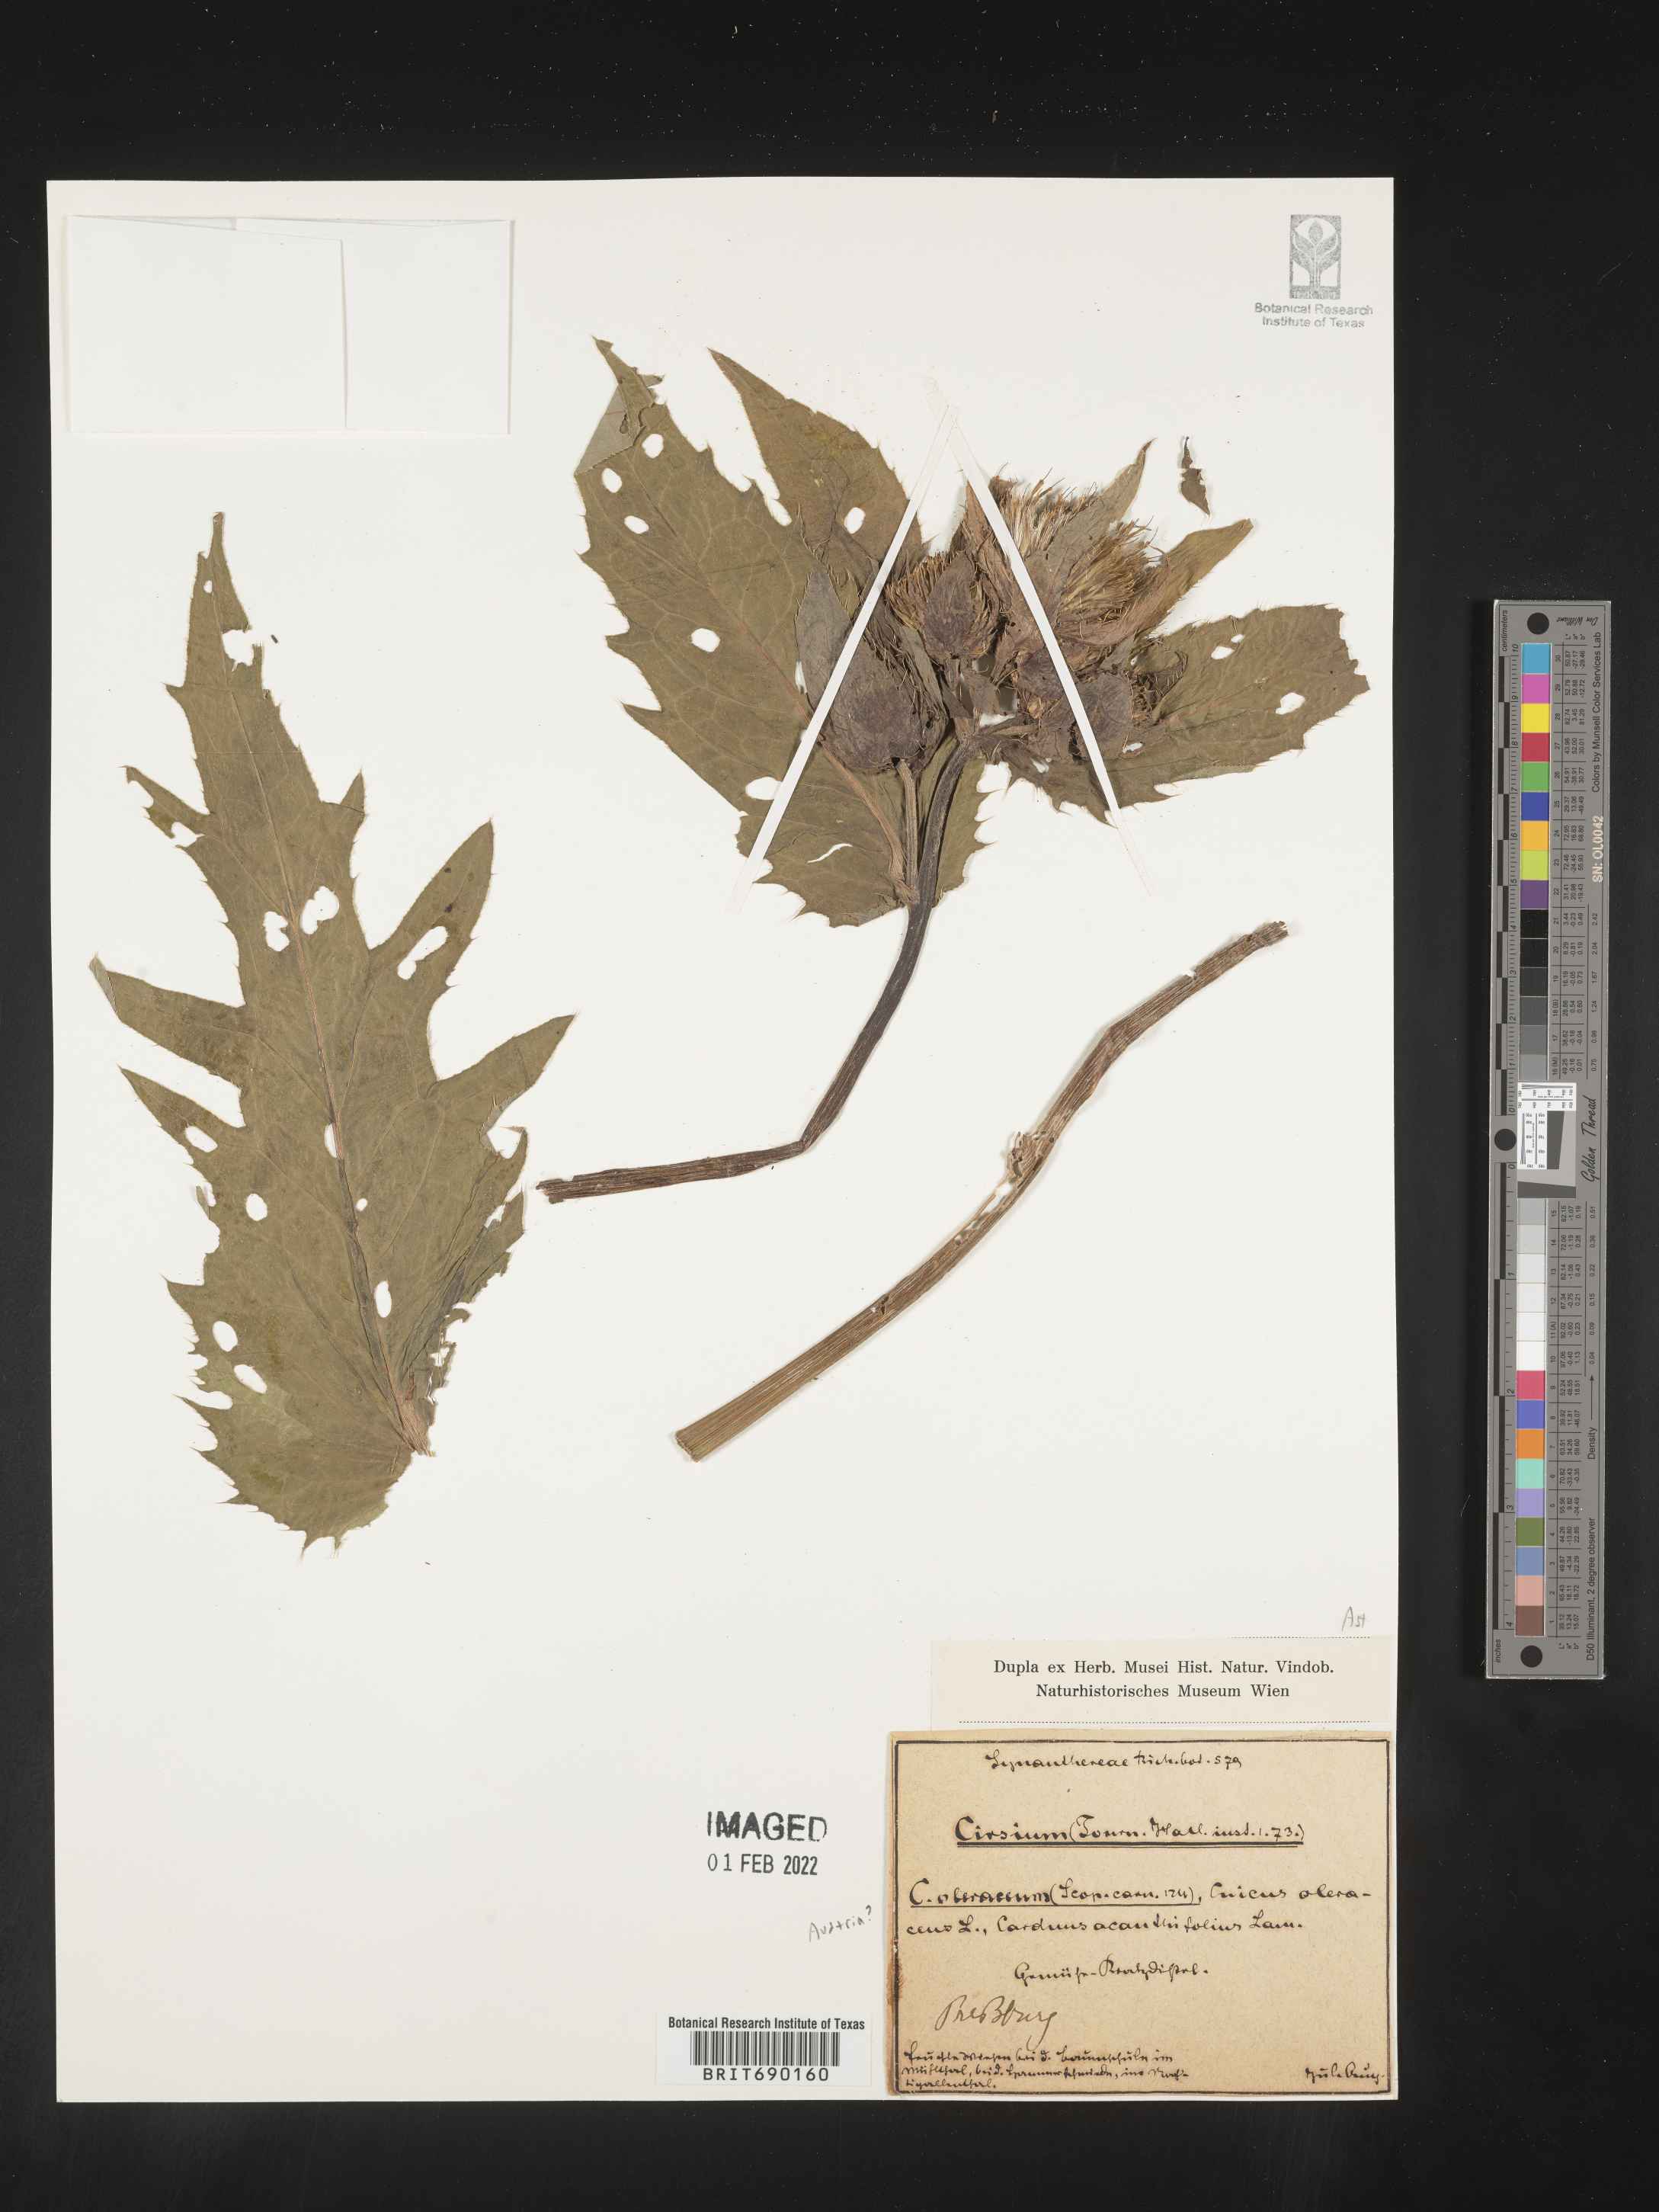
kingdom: Plantae
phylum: Tracheophyta
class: Magnoliopsida
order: Asterales
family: Asteraceae
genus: Cirsium
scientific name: Cirsium
